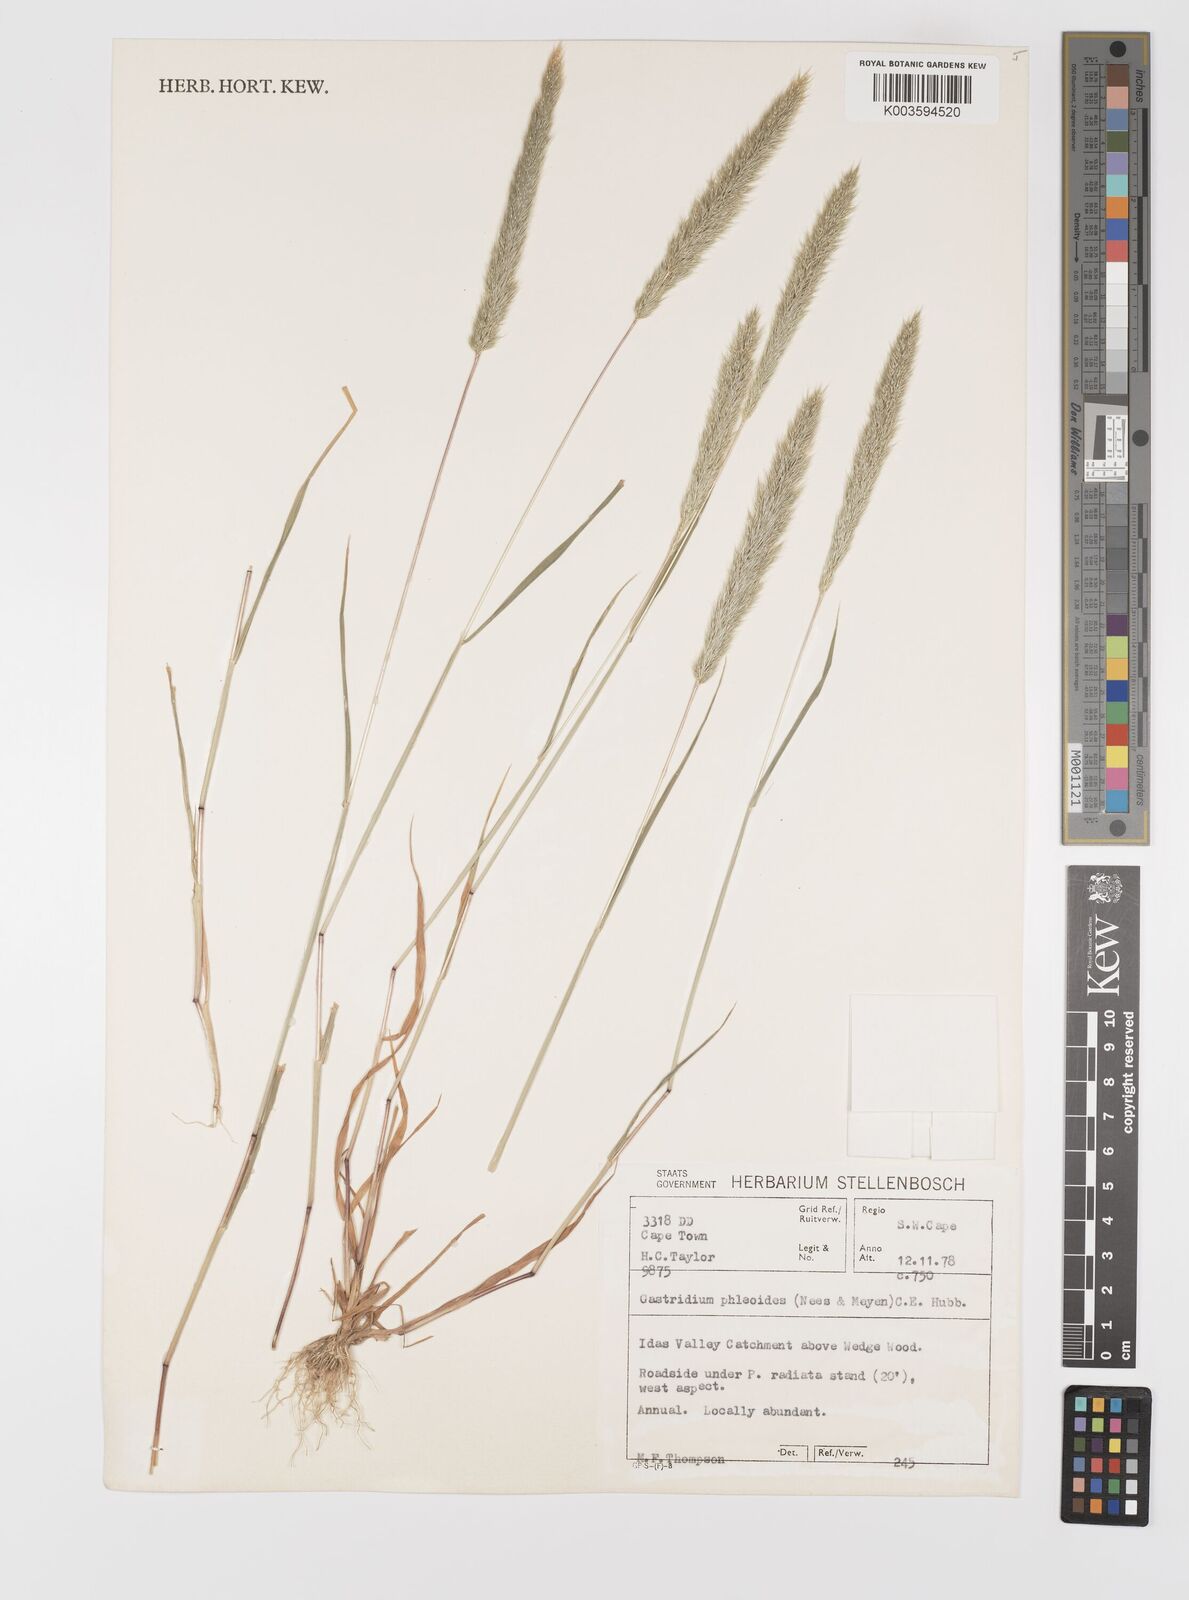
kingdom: Plantae
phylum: Tracheophyta
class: Liliopsida
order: Poales
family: Poaceae
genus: Gastridium
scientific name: Gastridium phleoides
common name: Nit grass
